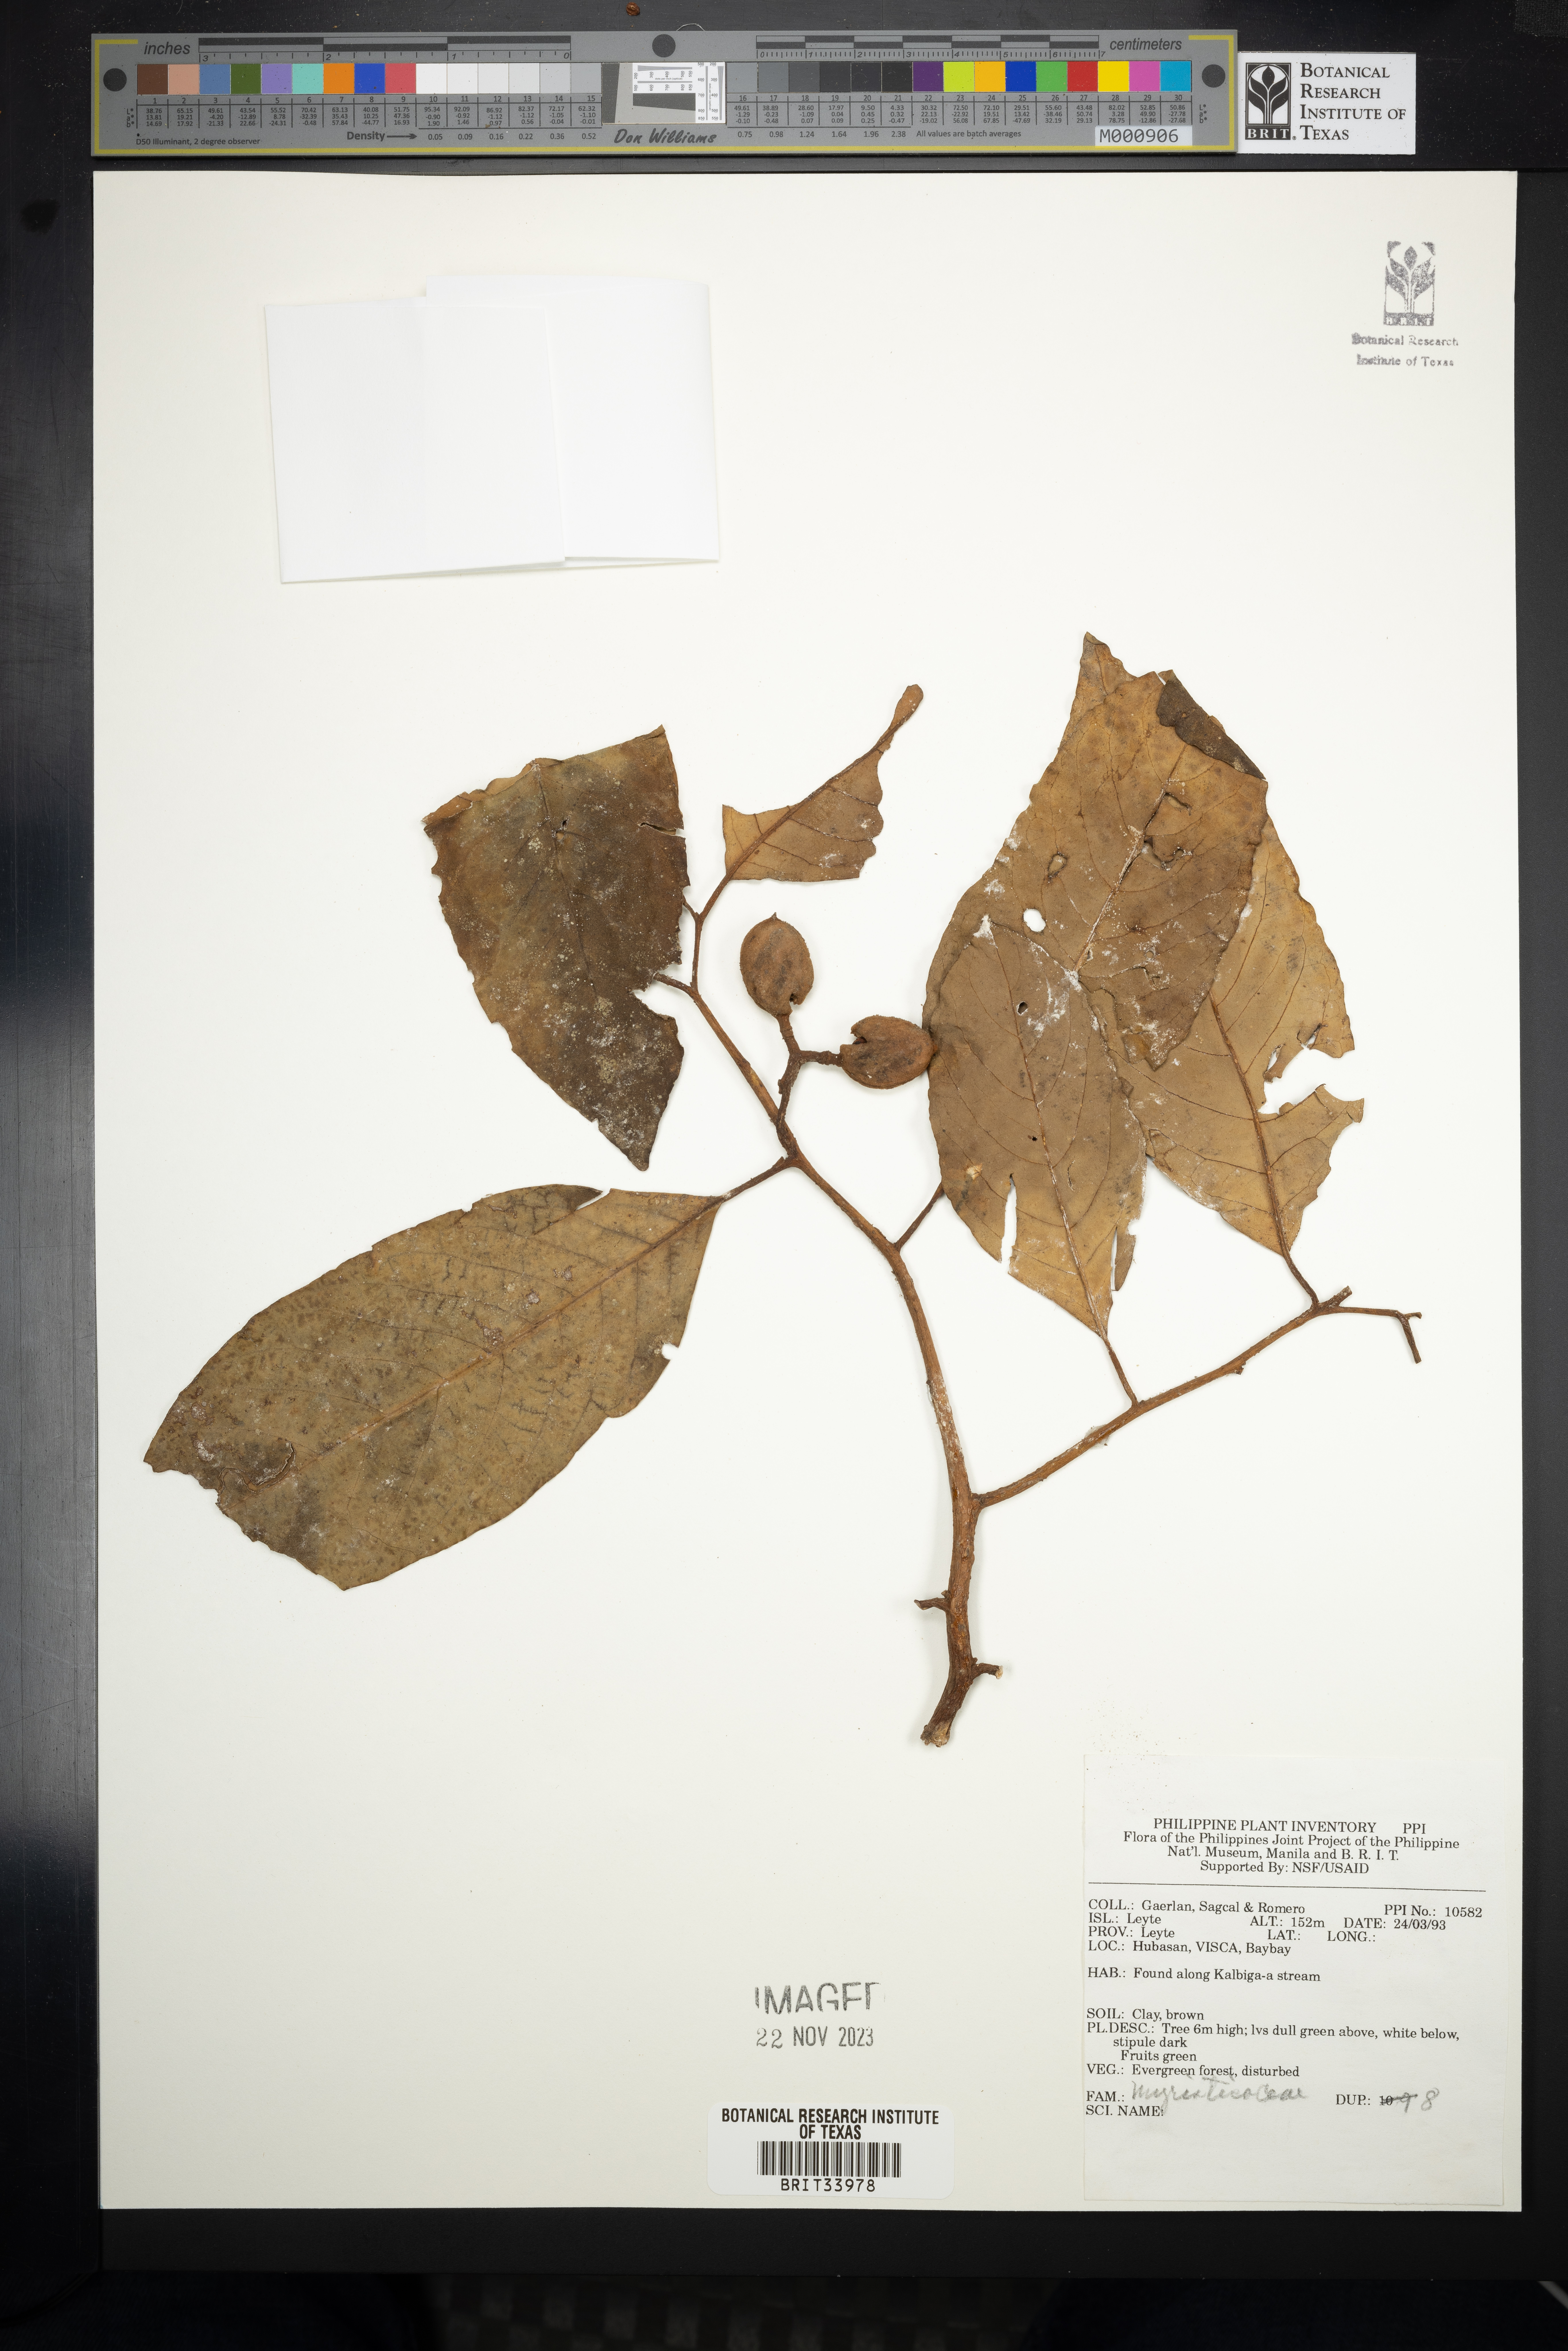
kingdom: Plantae
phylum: Tracheophyta
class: Magnoliopsida
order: Magnoliales
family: Myristicaceae
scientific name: Myristicaceae
